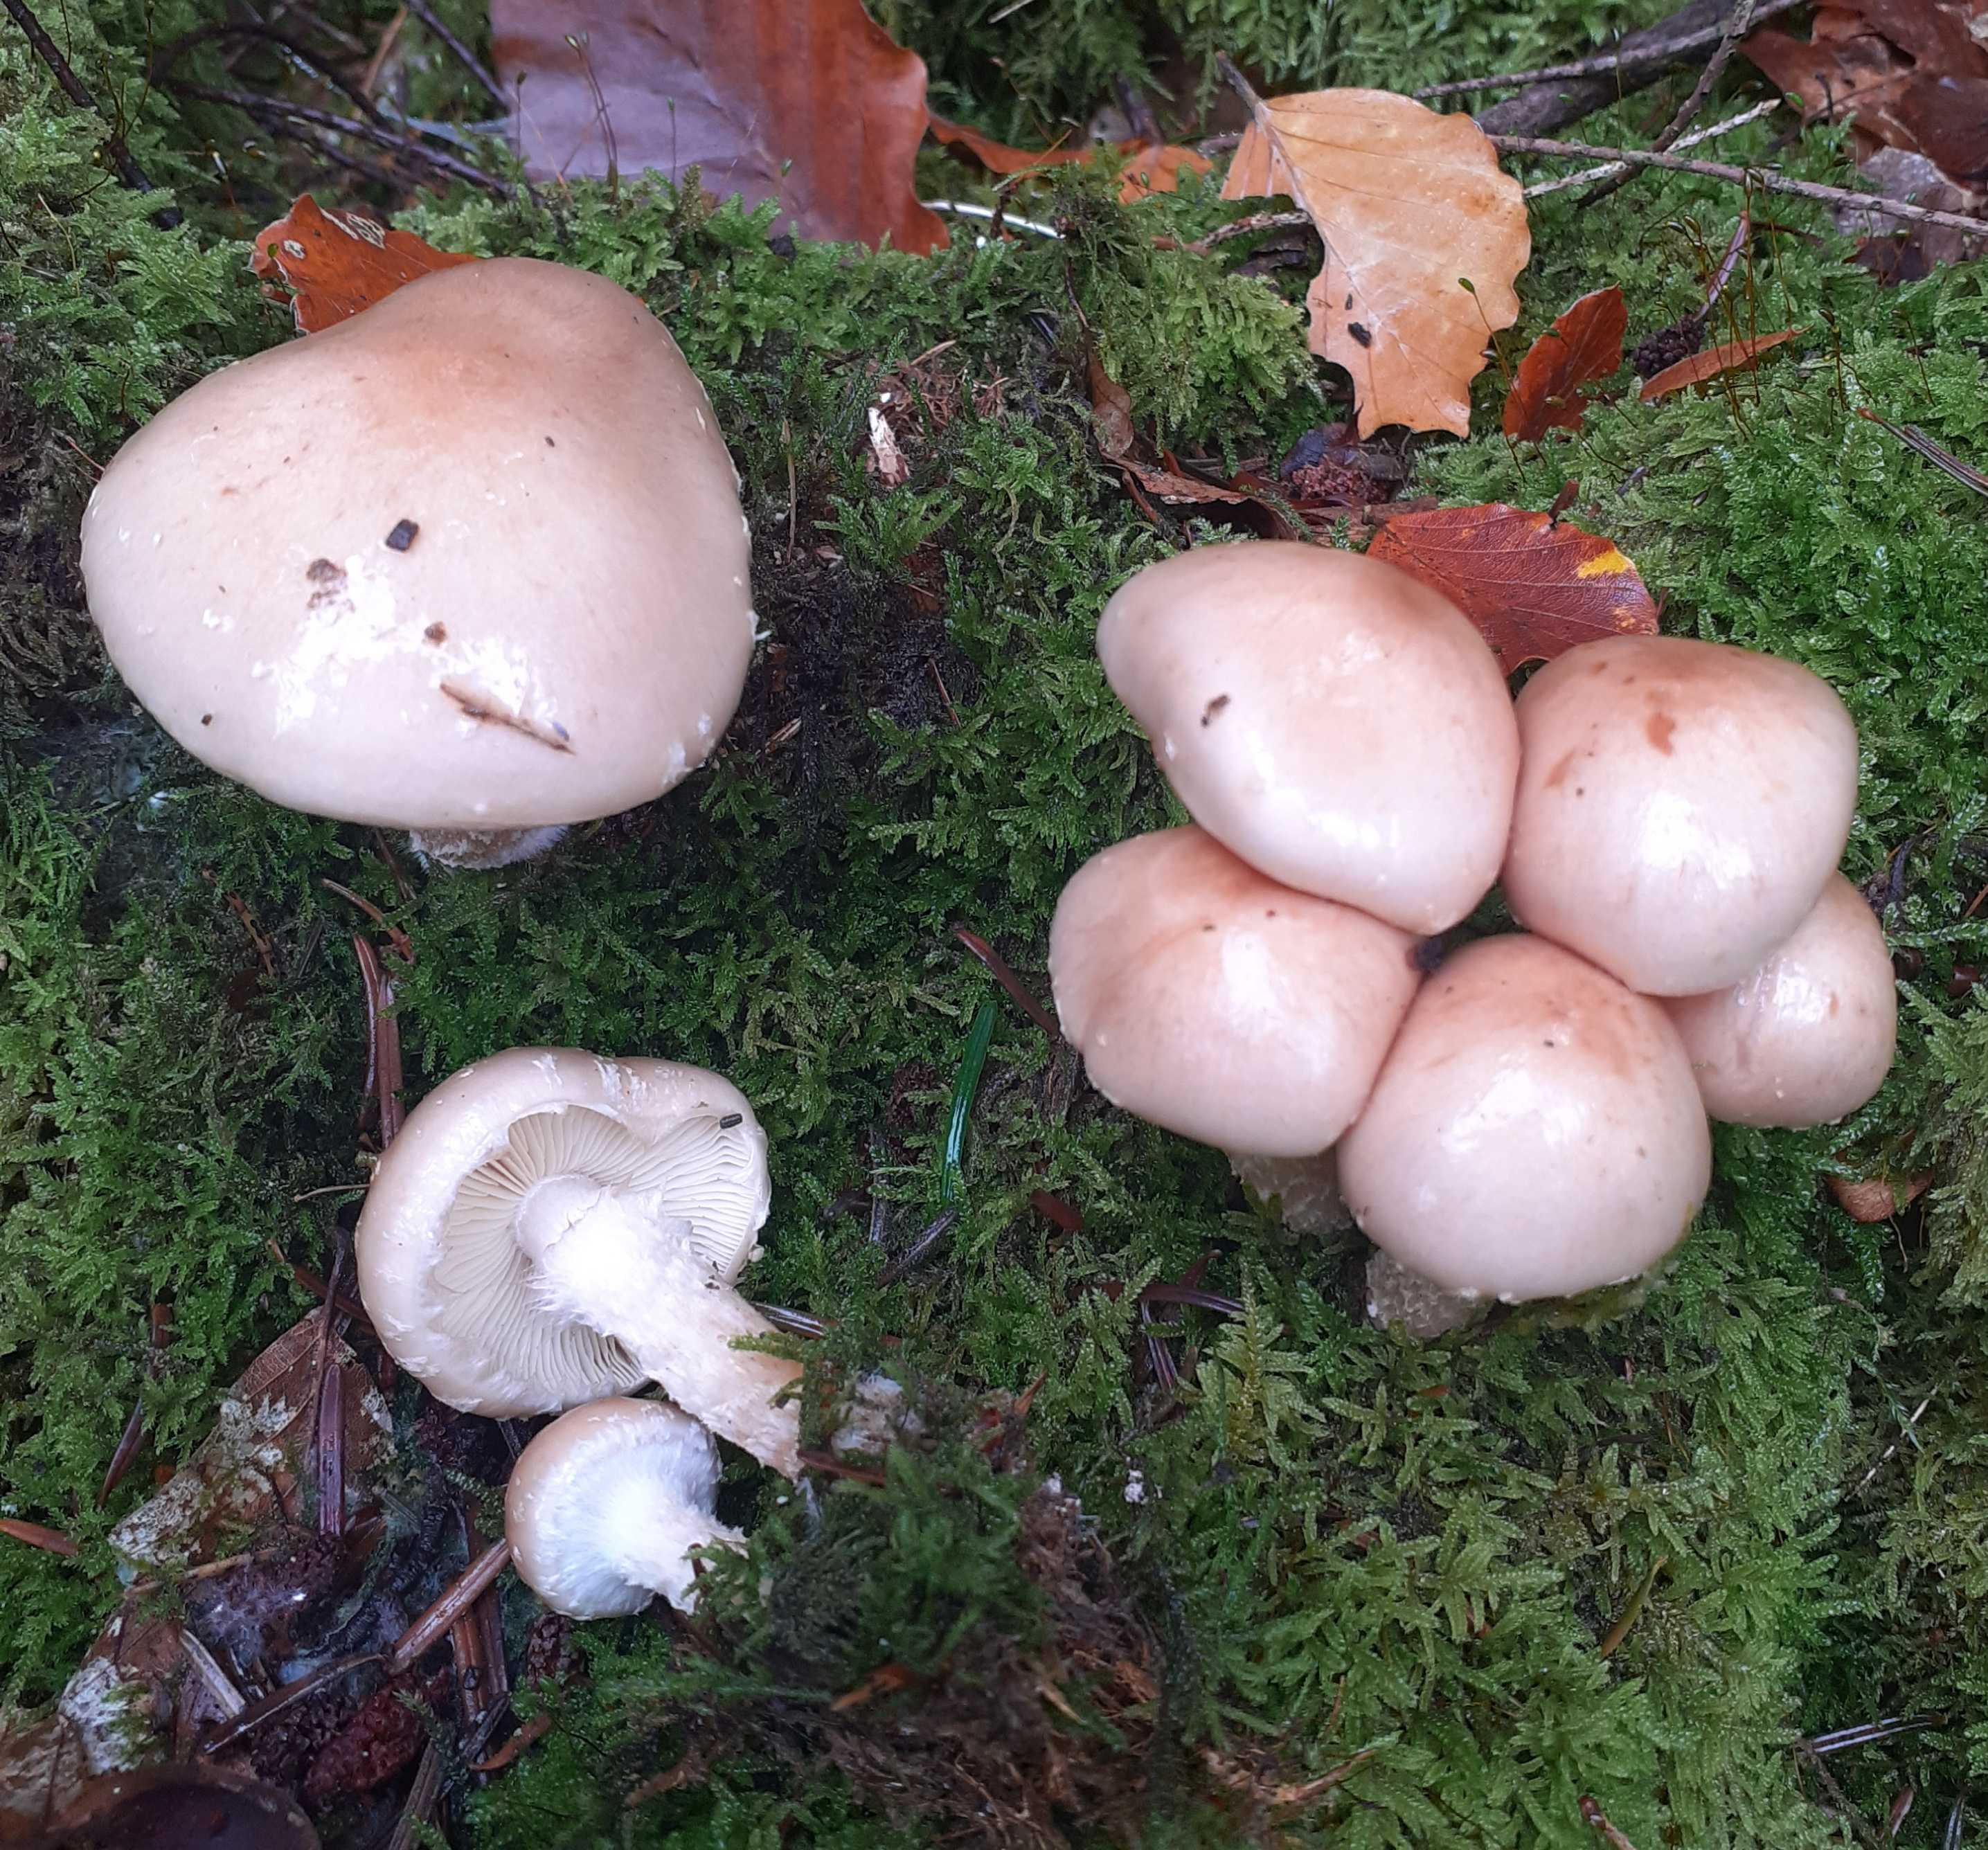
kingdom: Fungi
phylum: Basidiomycota
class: Agaricomycetes
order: Agaricales
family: Strophariaceae
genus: Pholiota
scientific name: Pholiota lenta
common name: løv-skælhat
